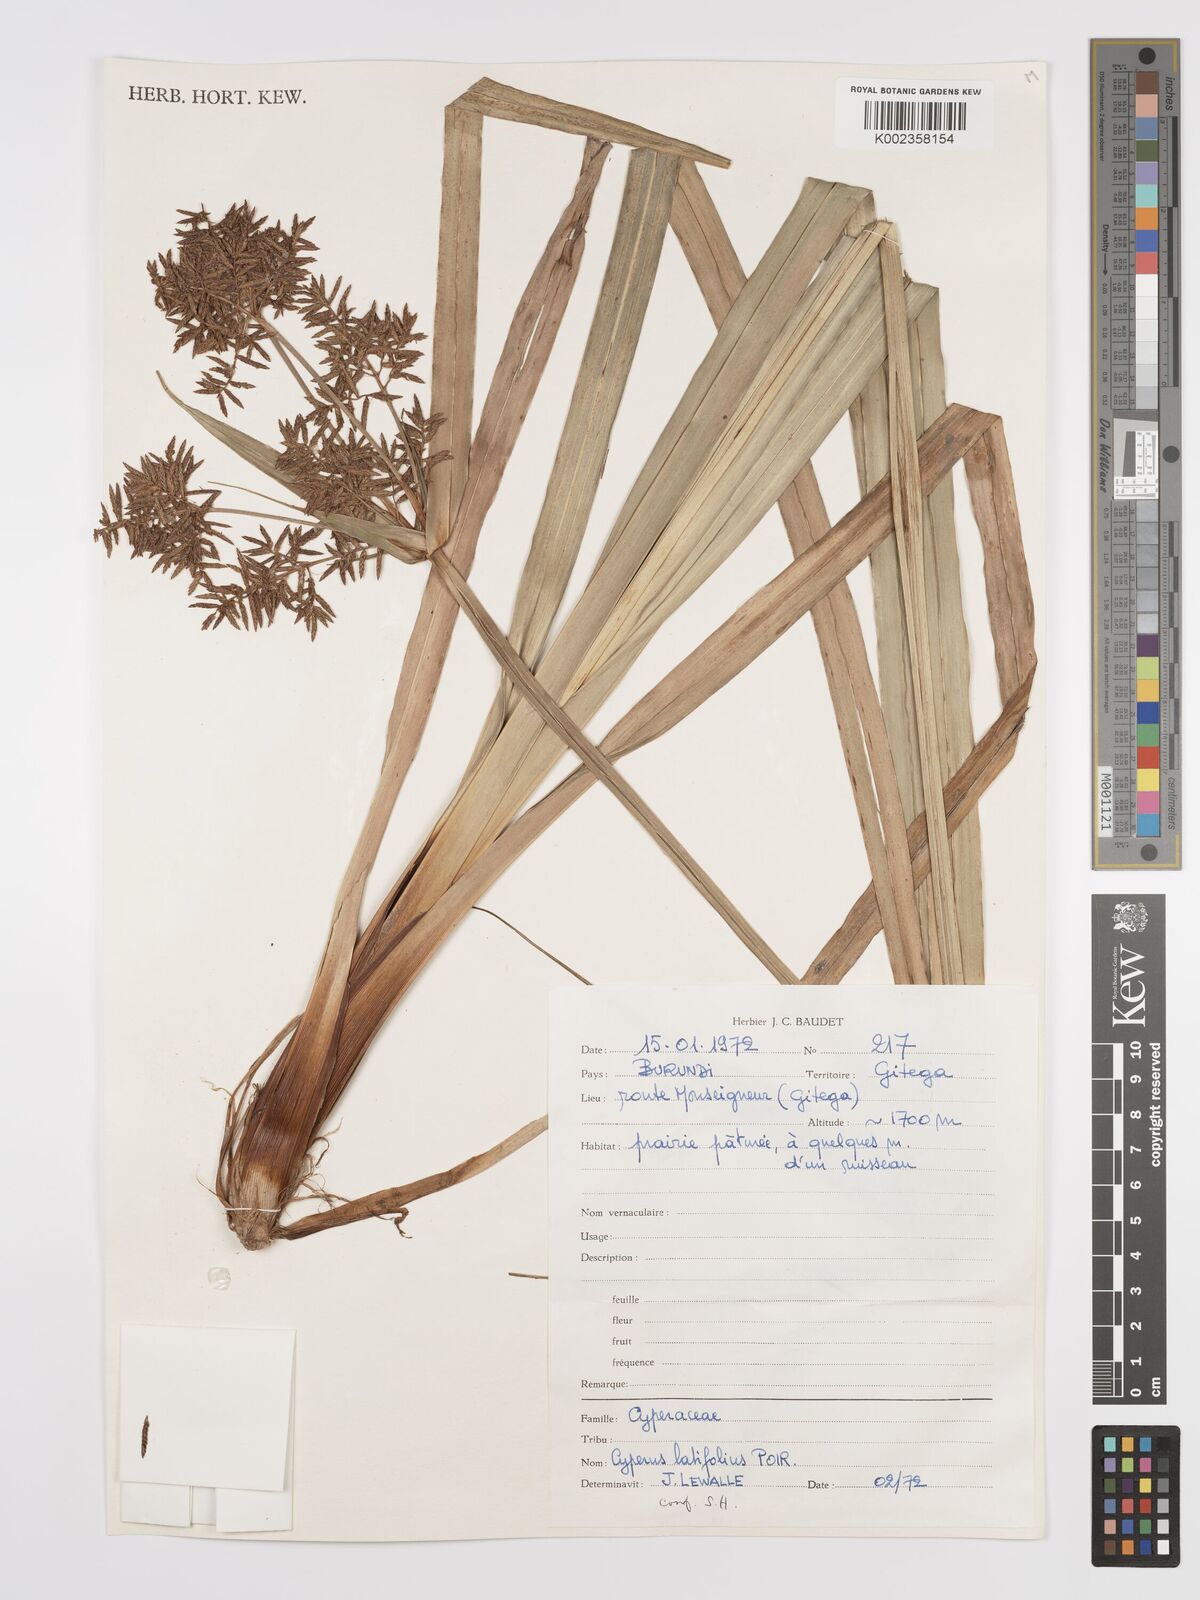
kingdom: Plantae
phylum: Tracheophyta
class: Liliopsida
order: Poales
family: Cyperaceae
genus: Cyperus
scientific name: Cyperus latifolius
